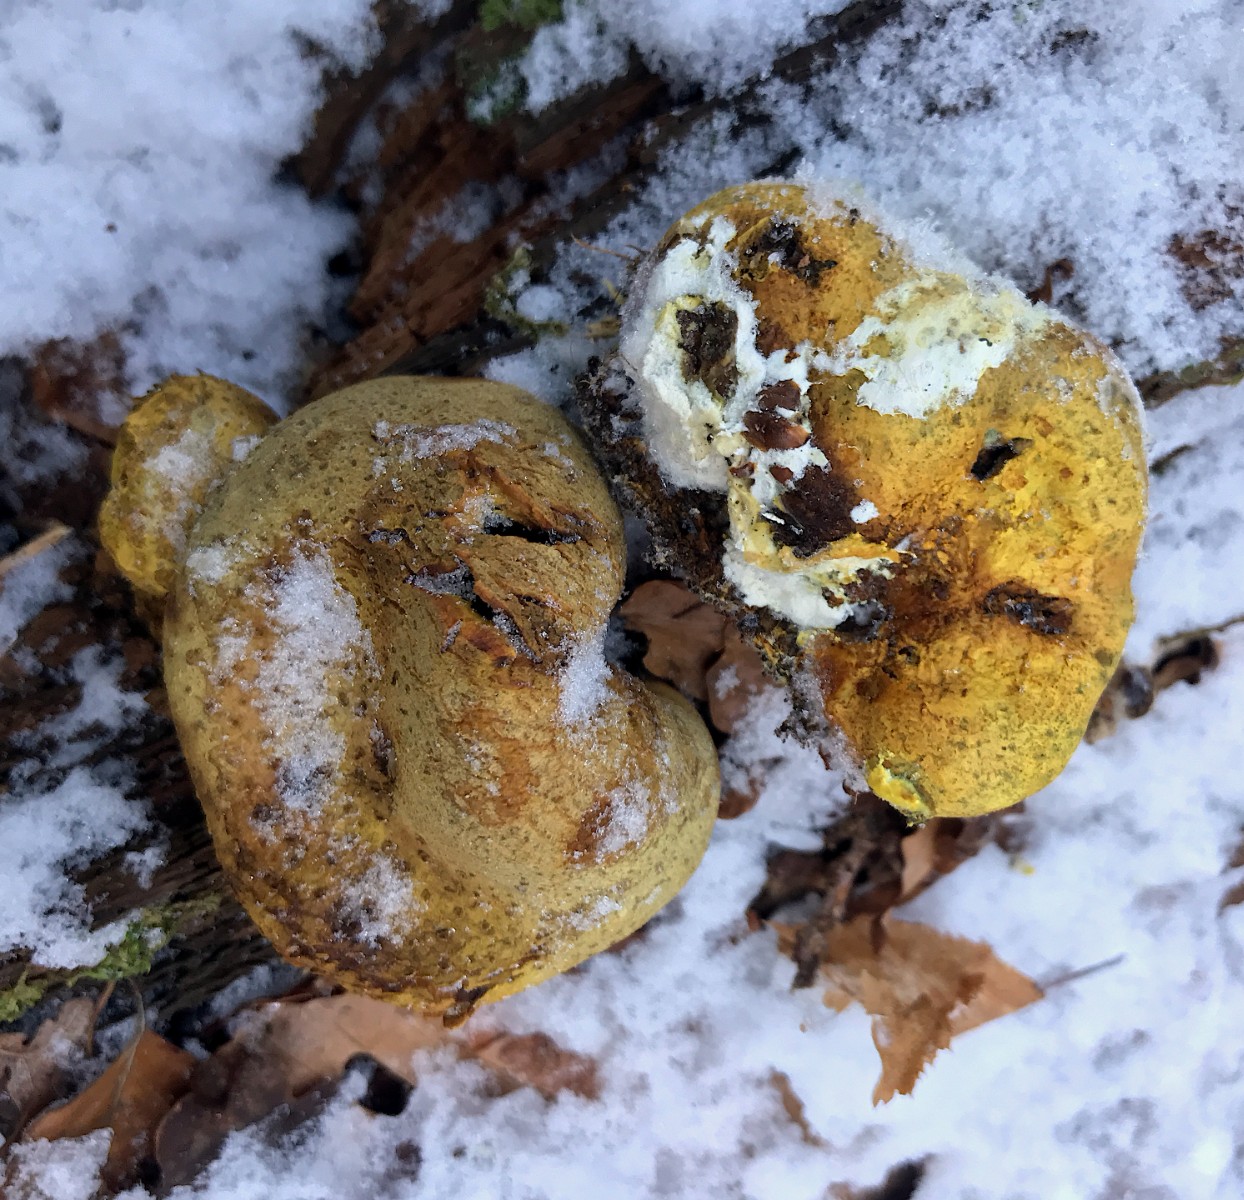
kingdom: Fungi
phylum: Basidiomycota
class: Agaricomycetes
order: Boletales
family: Sclerodermataceae
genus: Scleroderma
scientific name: Scleroderma citrinum
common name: almindelig bruskbold
